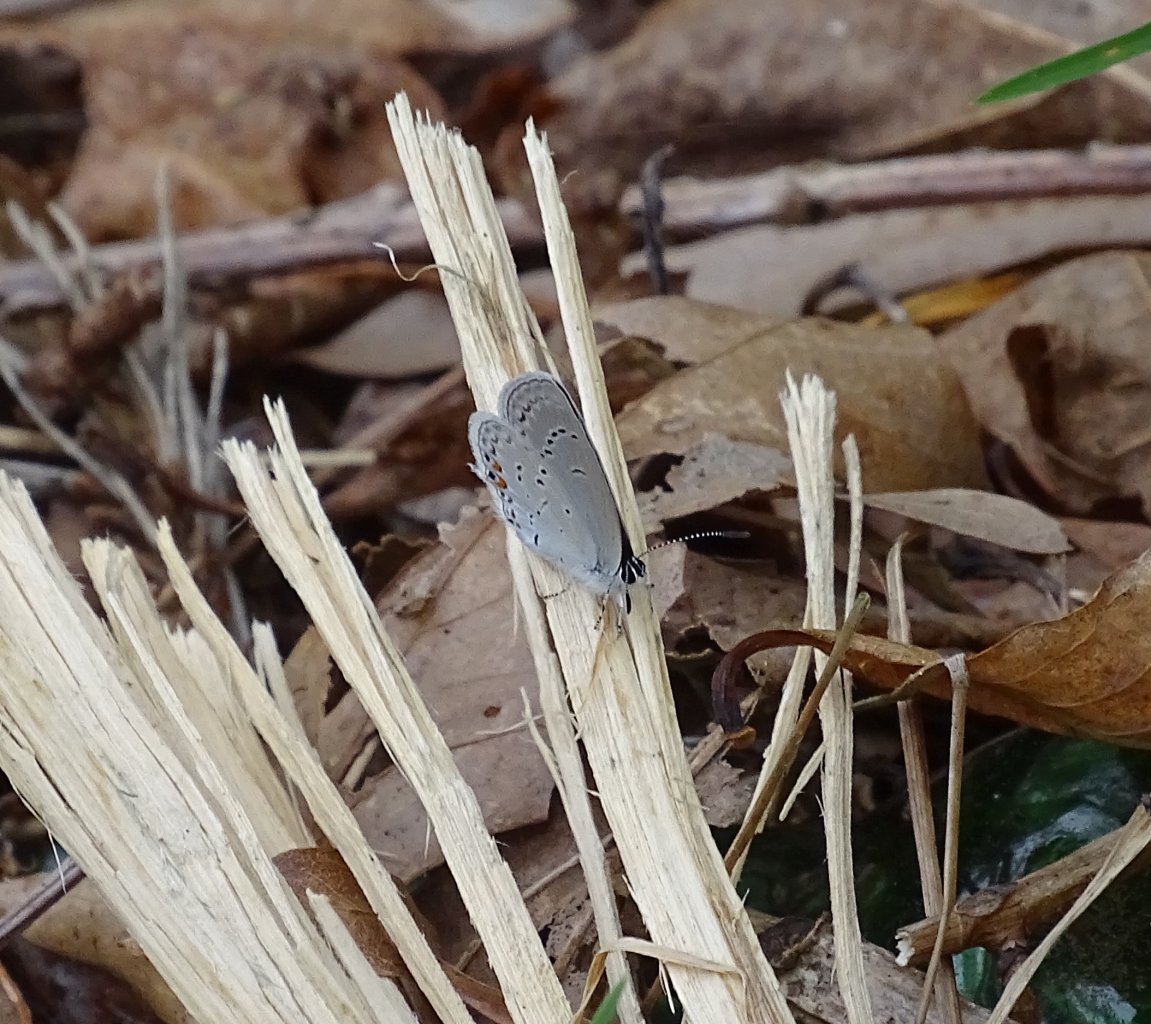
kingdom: Animalia
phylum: Arthropoda
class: Insecta
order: Lepidoptera
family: Lycaenidae
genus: Elkalyce
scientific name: Elkalyce comyntas
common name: Eastern Tailed-Blue
